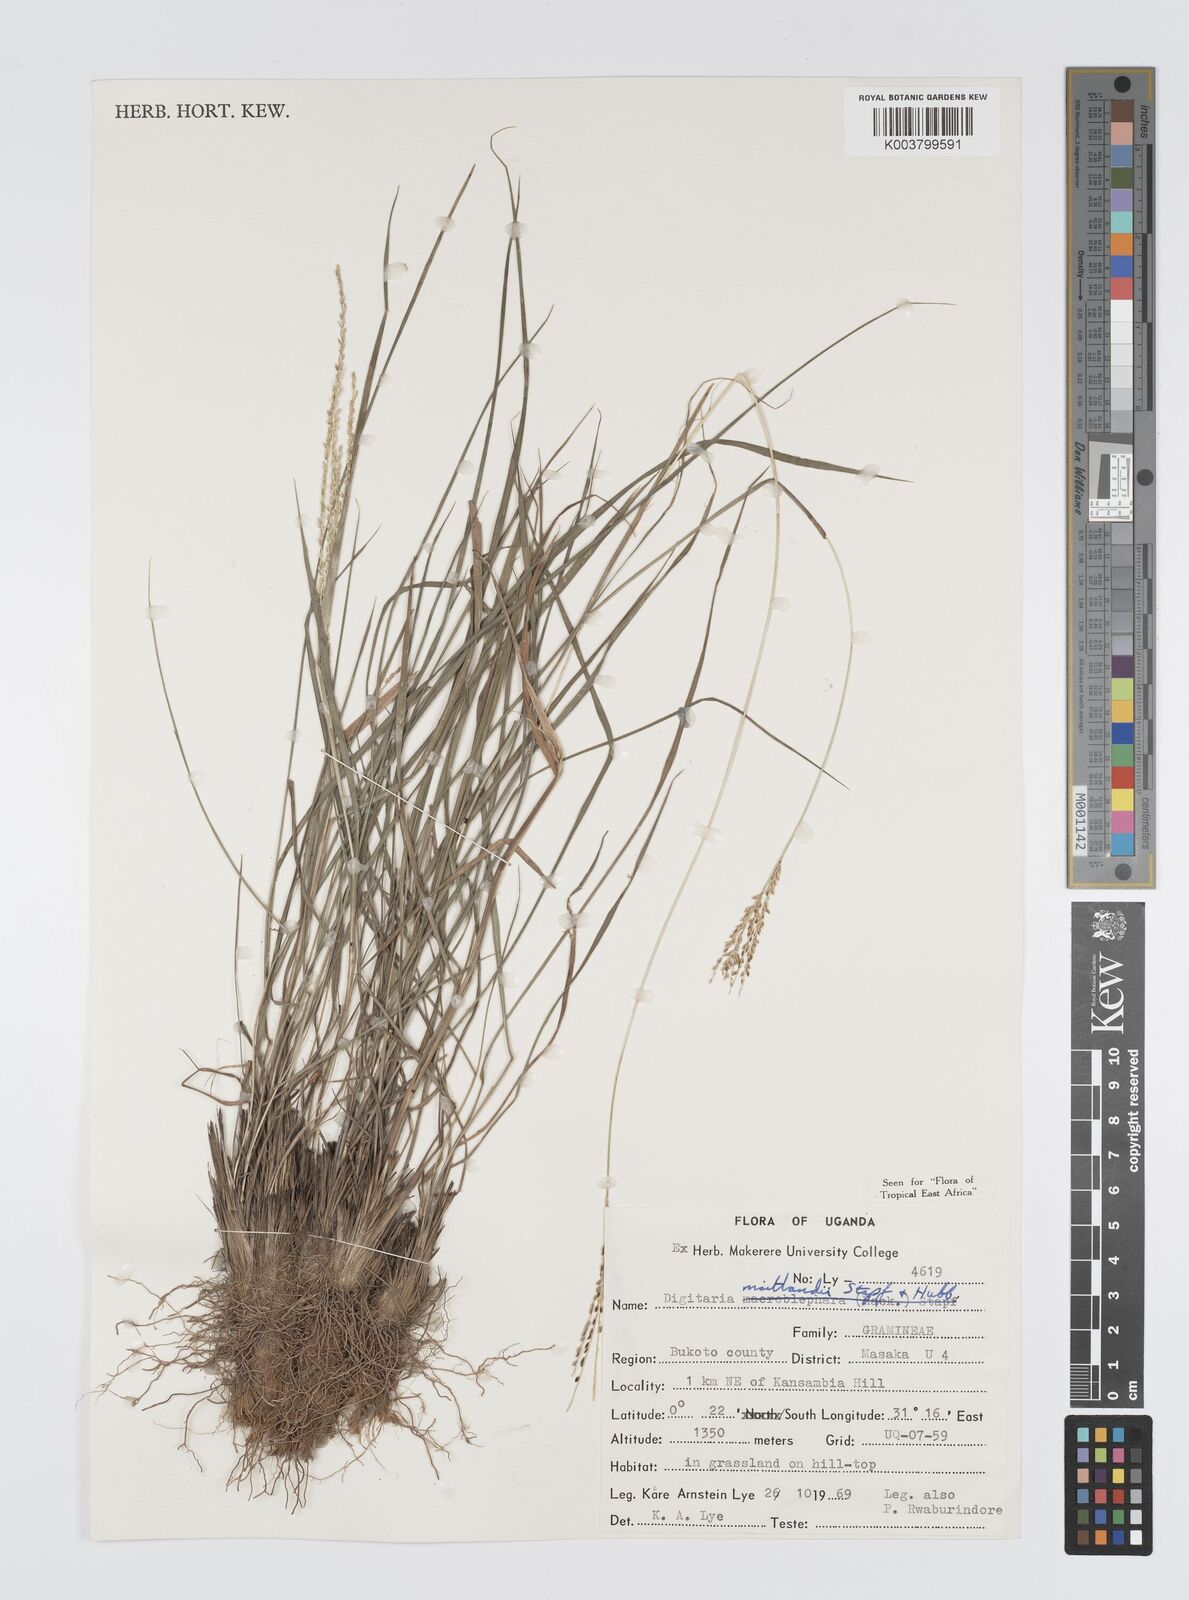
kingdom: Plantae
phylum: Tracheophyta
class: Liliopsida
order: Poales
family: Poaceae
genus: Digitaria
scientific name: Digitaria maitlandii
